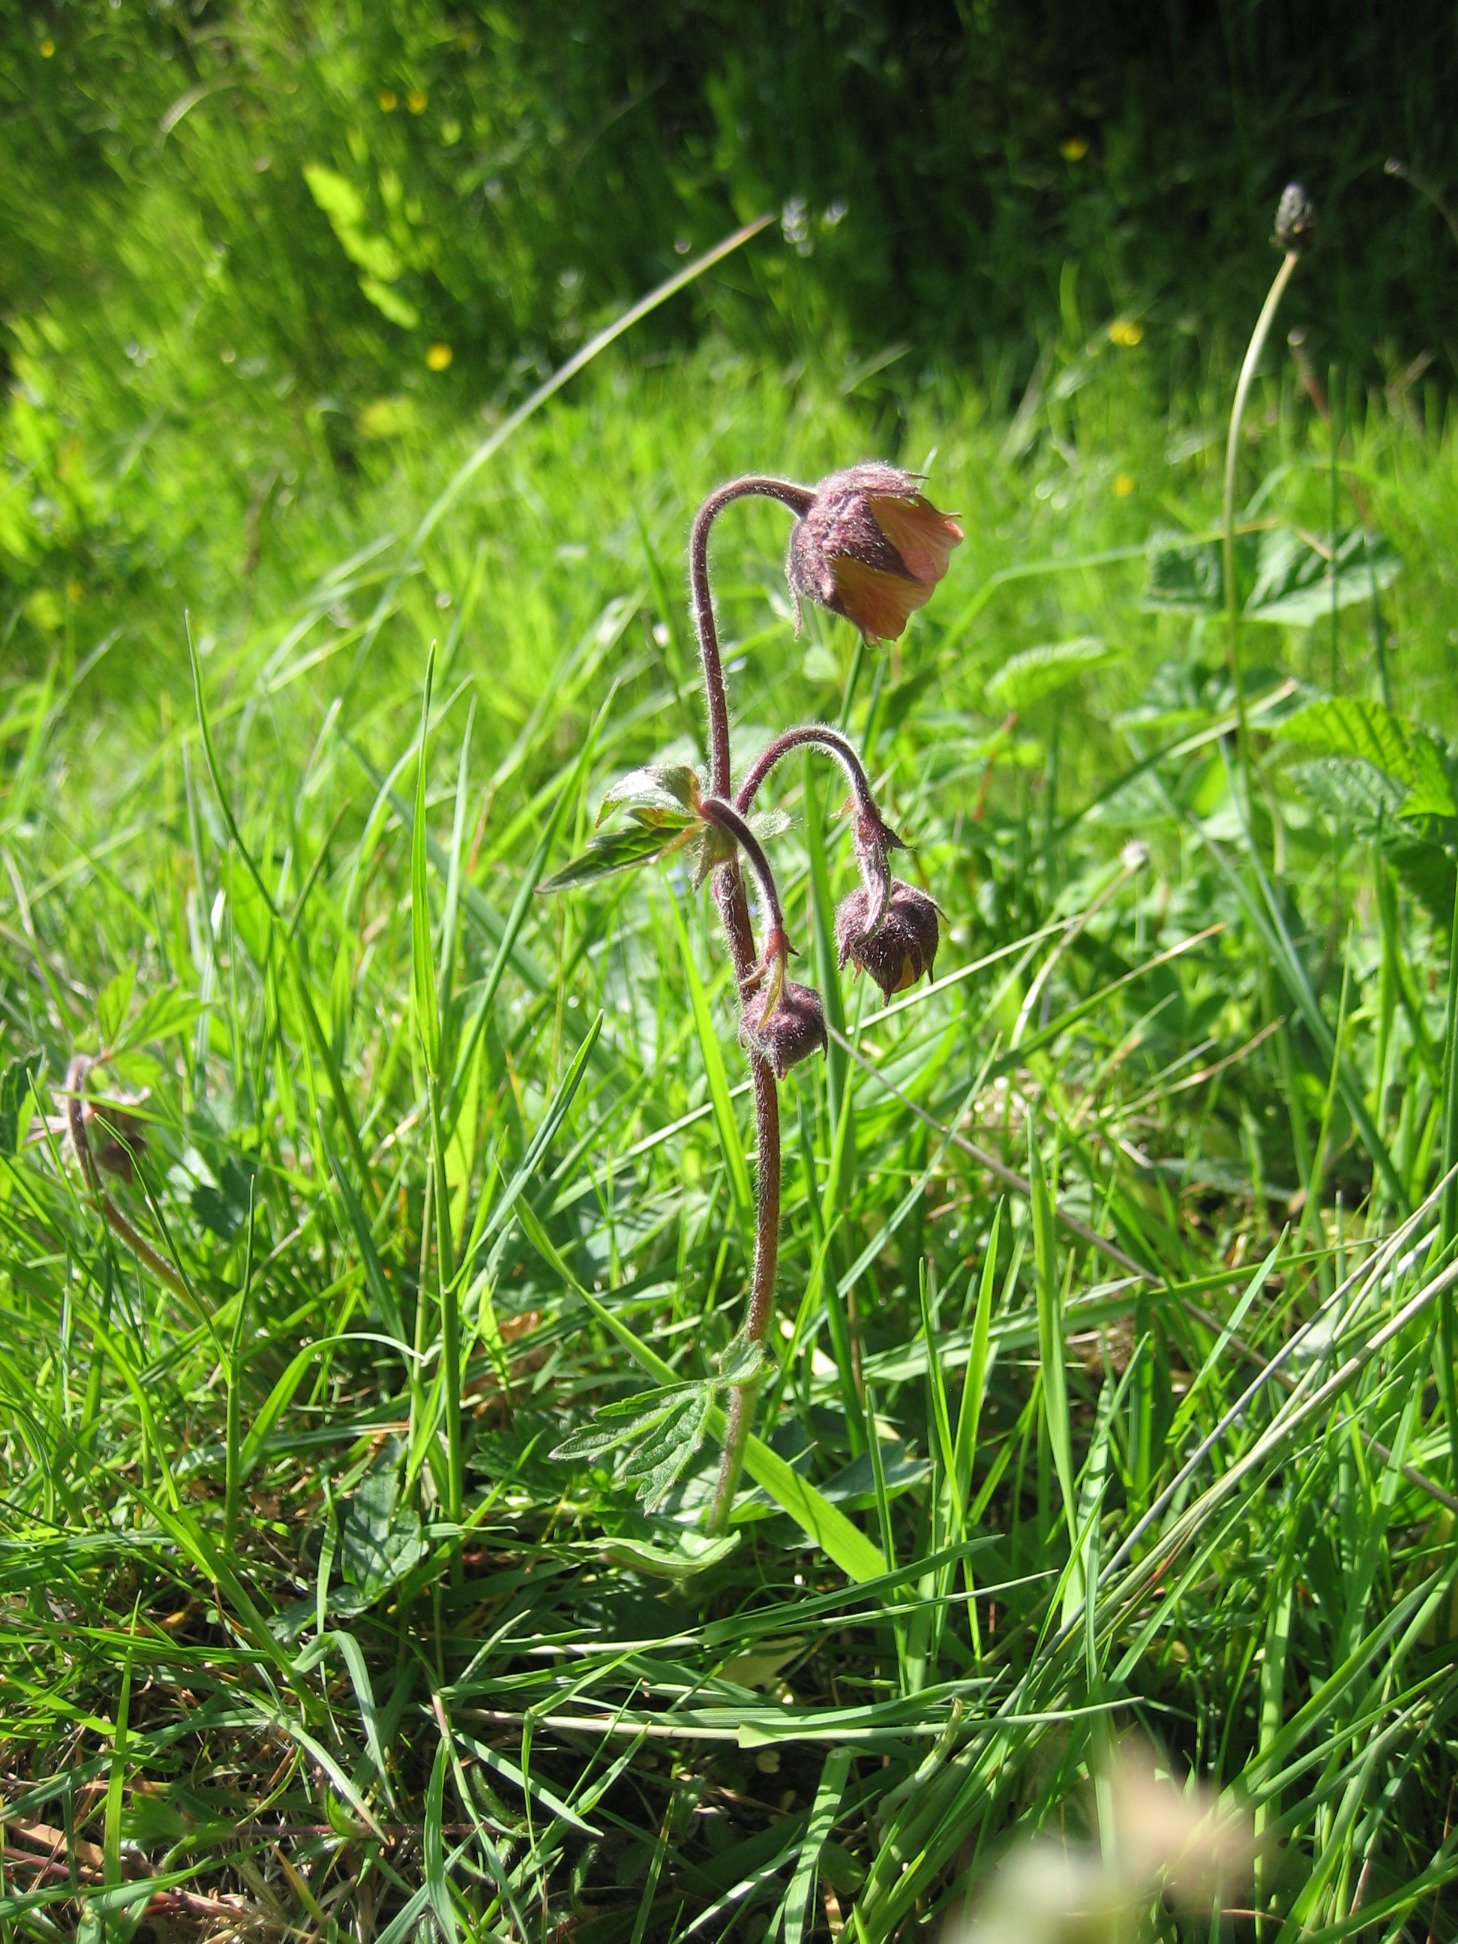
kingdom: Plantae
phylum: Tracheophyta
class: Magnoliopsida
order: Rosales
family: Rosaceae
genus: Geum
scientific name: Geum rivale
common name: Eng-nellikerod
